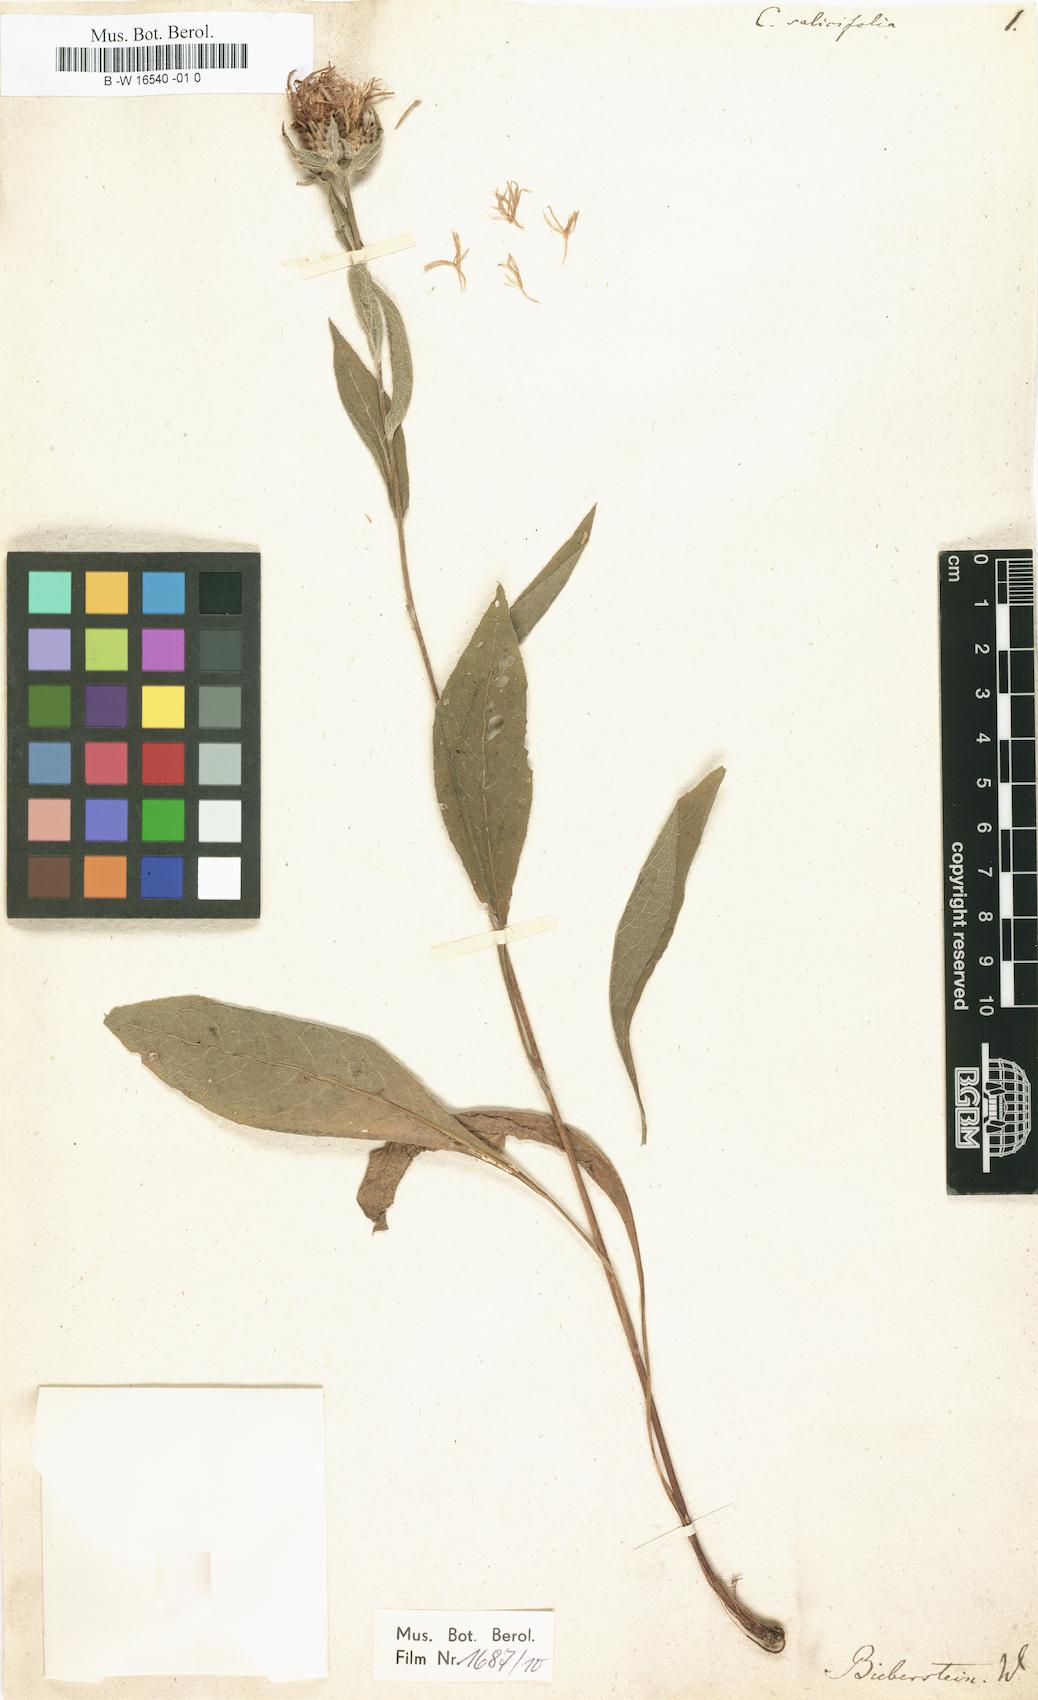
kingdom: Plantae
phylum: Tracheophyta
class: Magnoliopsida
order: Asterales
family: Asteraceae
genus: Centaurea
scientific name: Centaurea phrygia
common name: Wig knapweed
